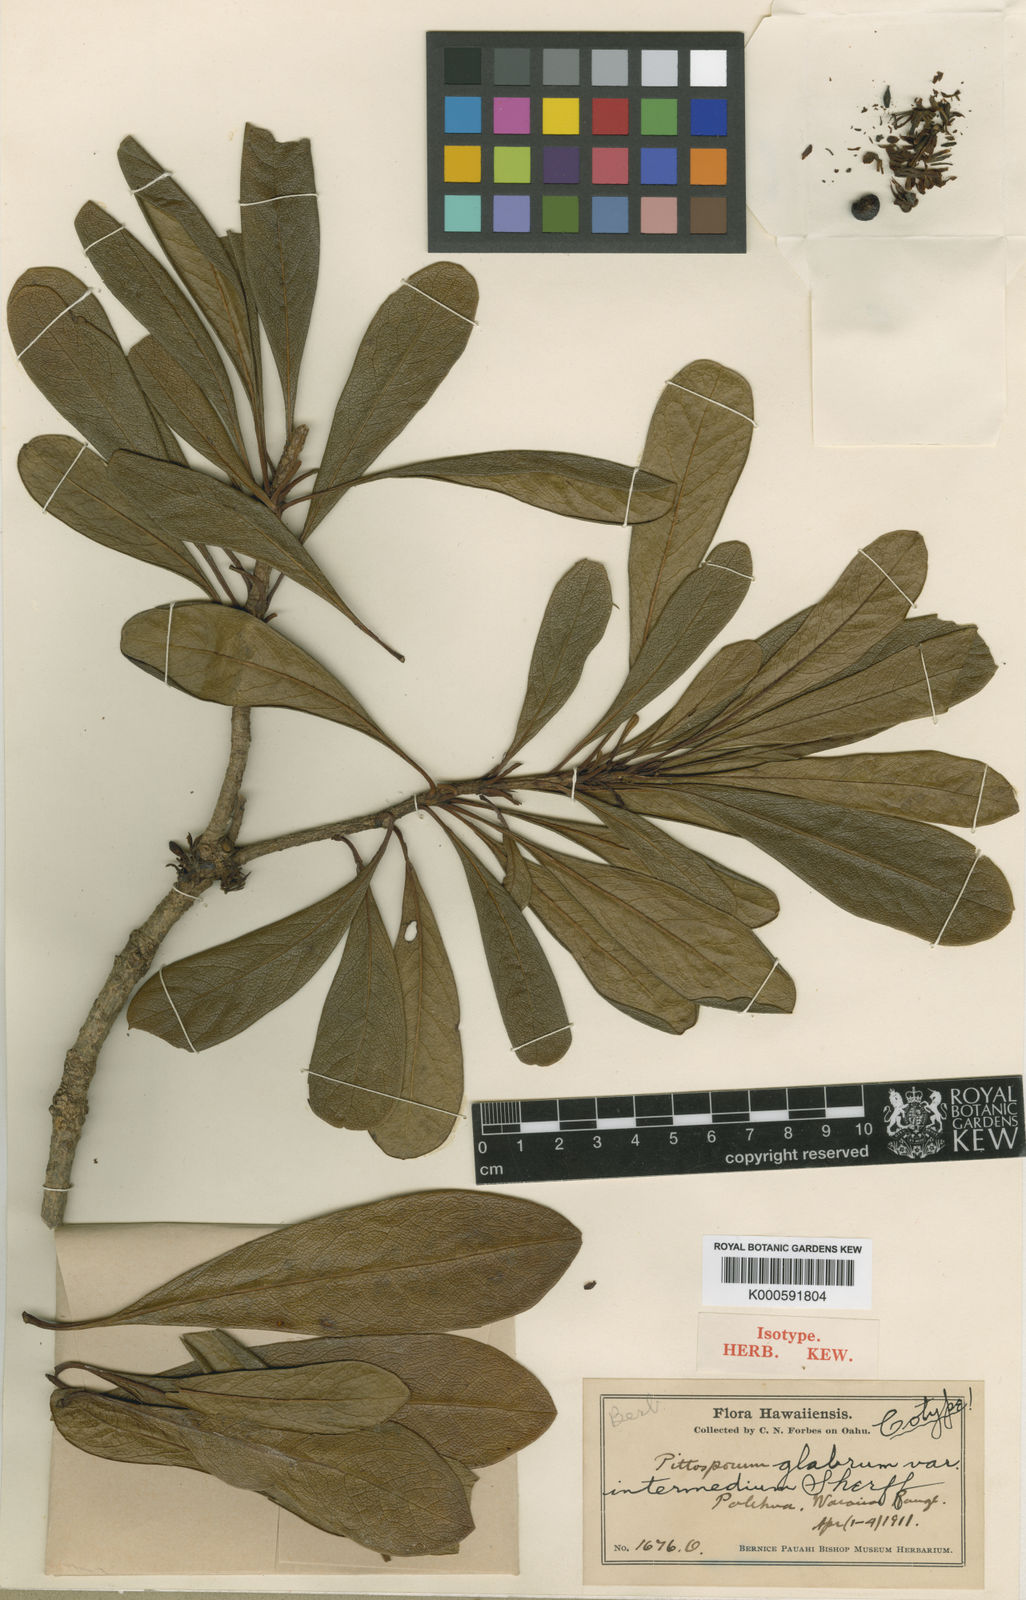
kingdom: Plantae
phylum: Tracheophyta
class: Magnoliopsida
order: Apiales
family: Pittosporaceae
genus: Pittosporum
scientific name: Pittosporum glabrum
